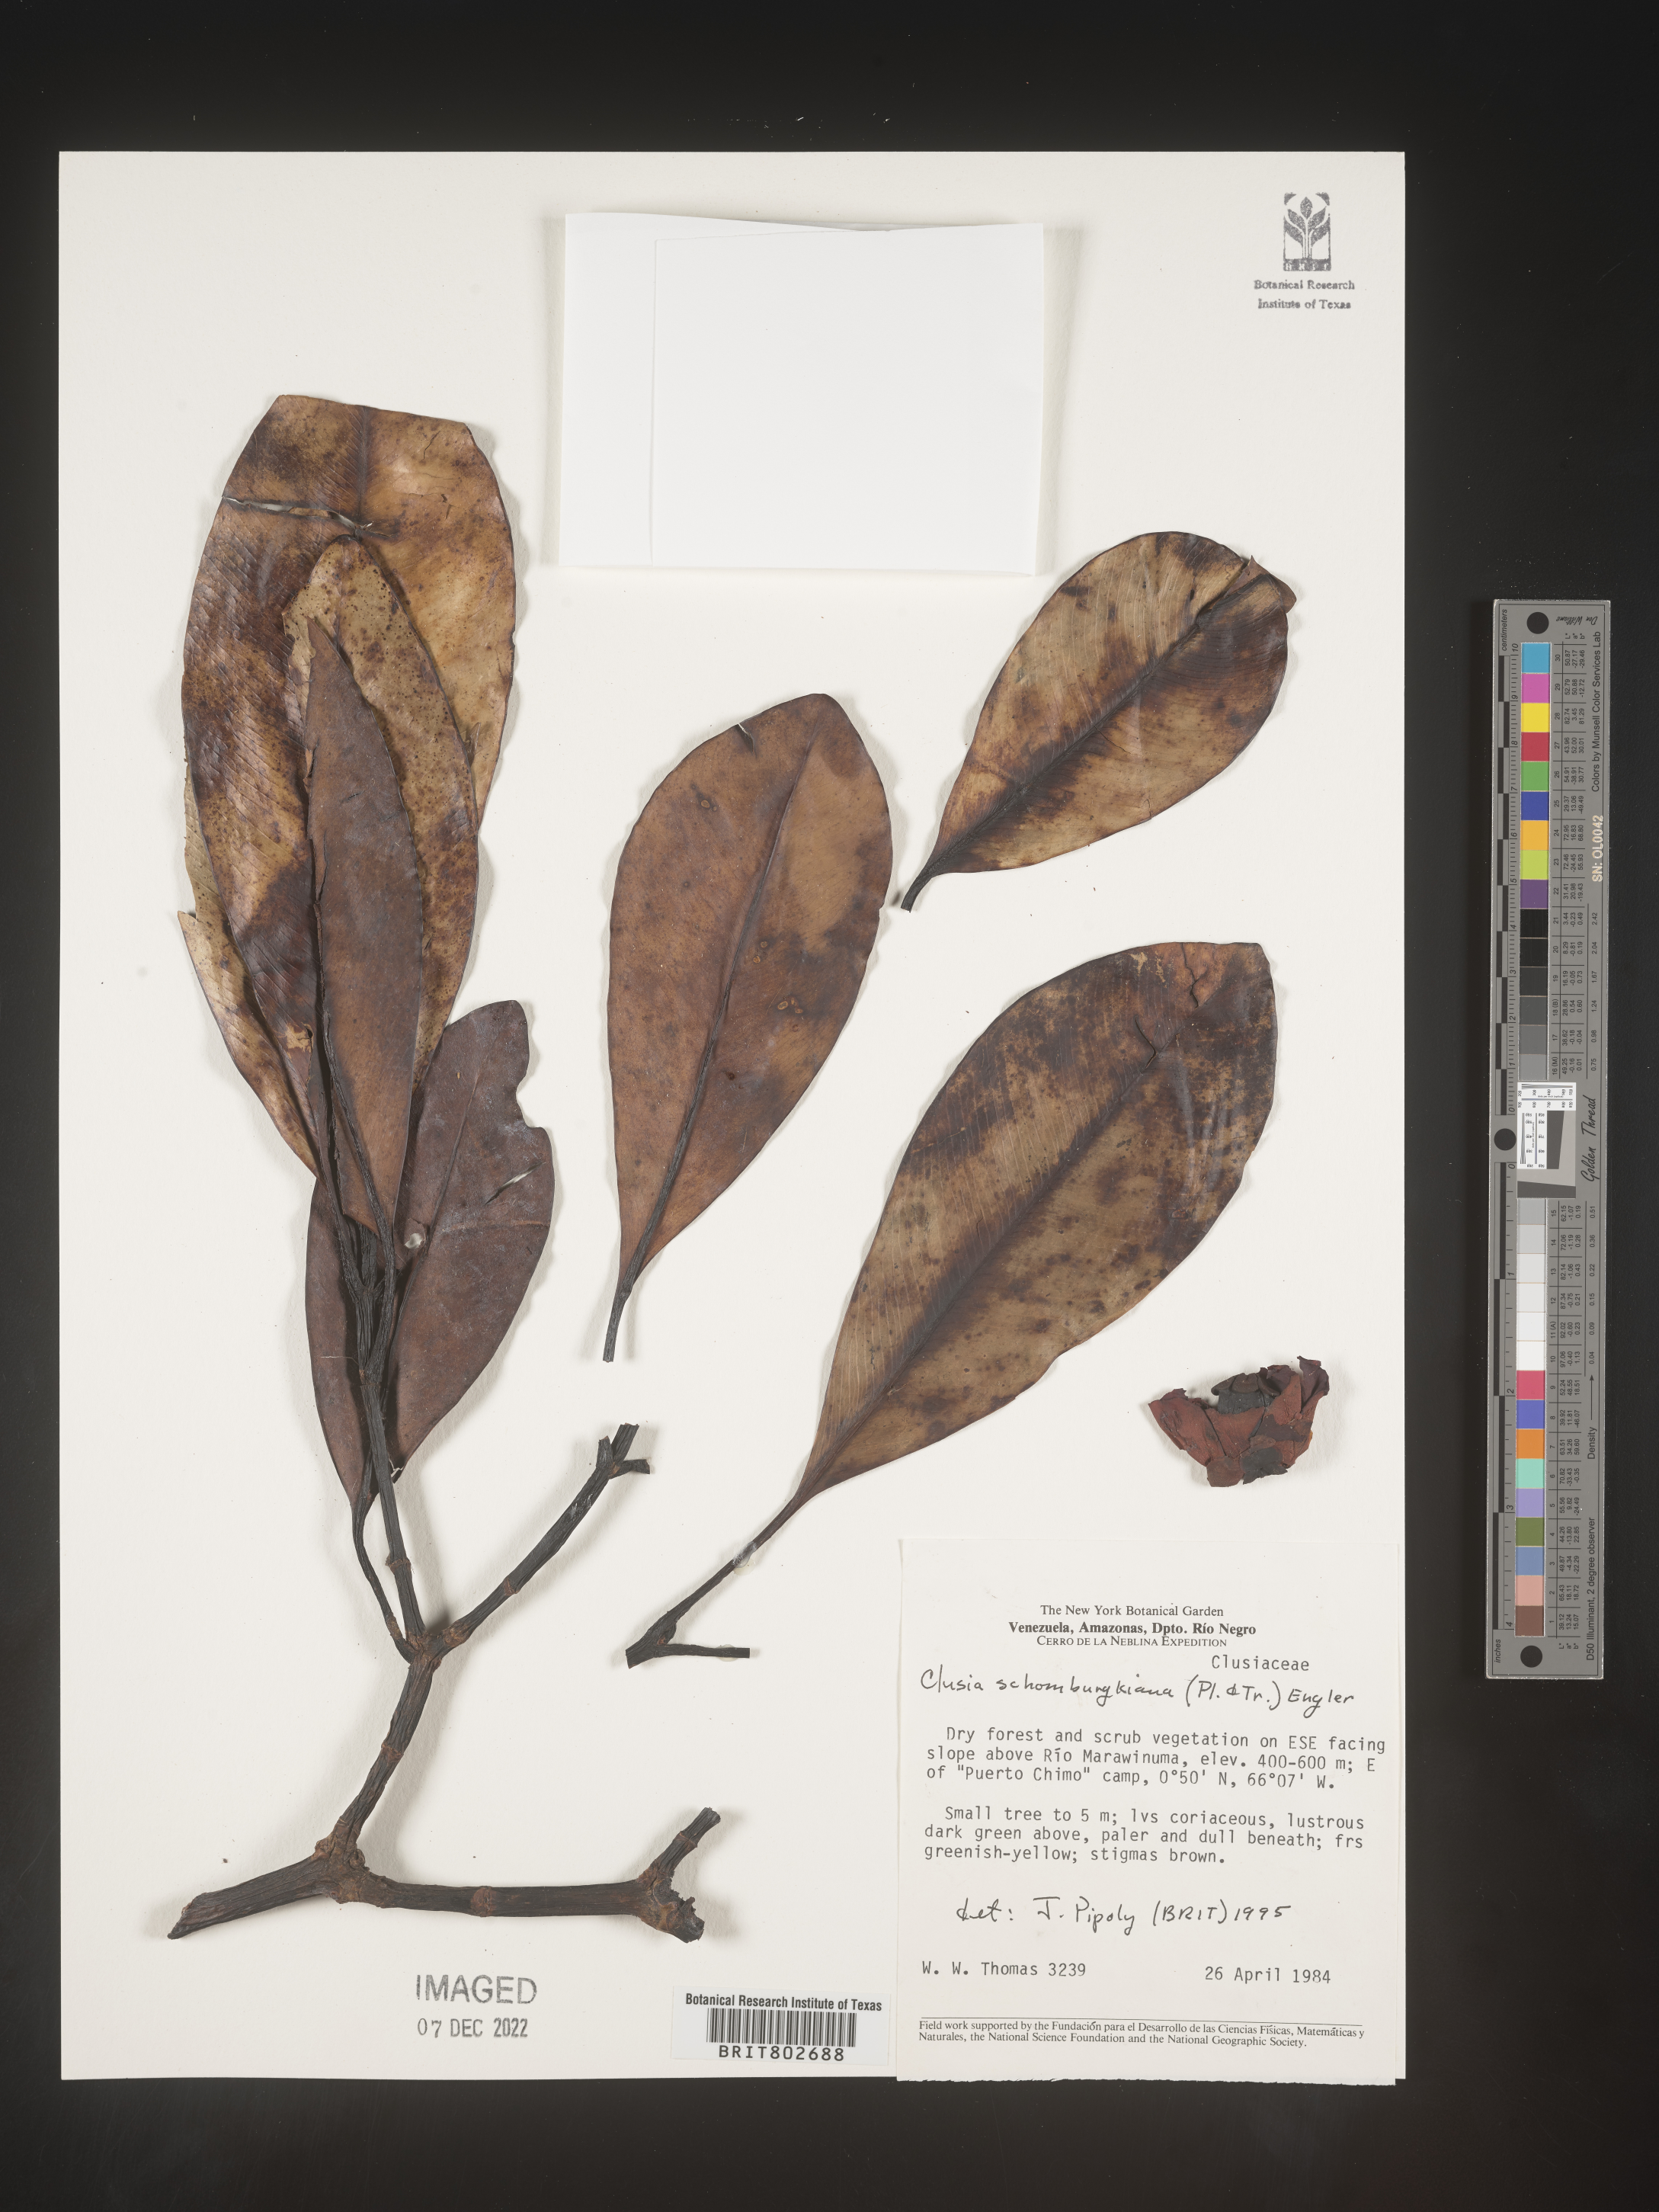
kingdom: Plantae
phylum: Tracheophyta
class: Magnoliopsida
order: Malpighiales
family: Clusiaceae
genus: Clusia
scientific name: Clusia schomburgkiana
